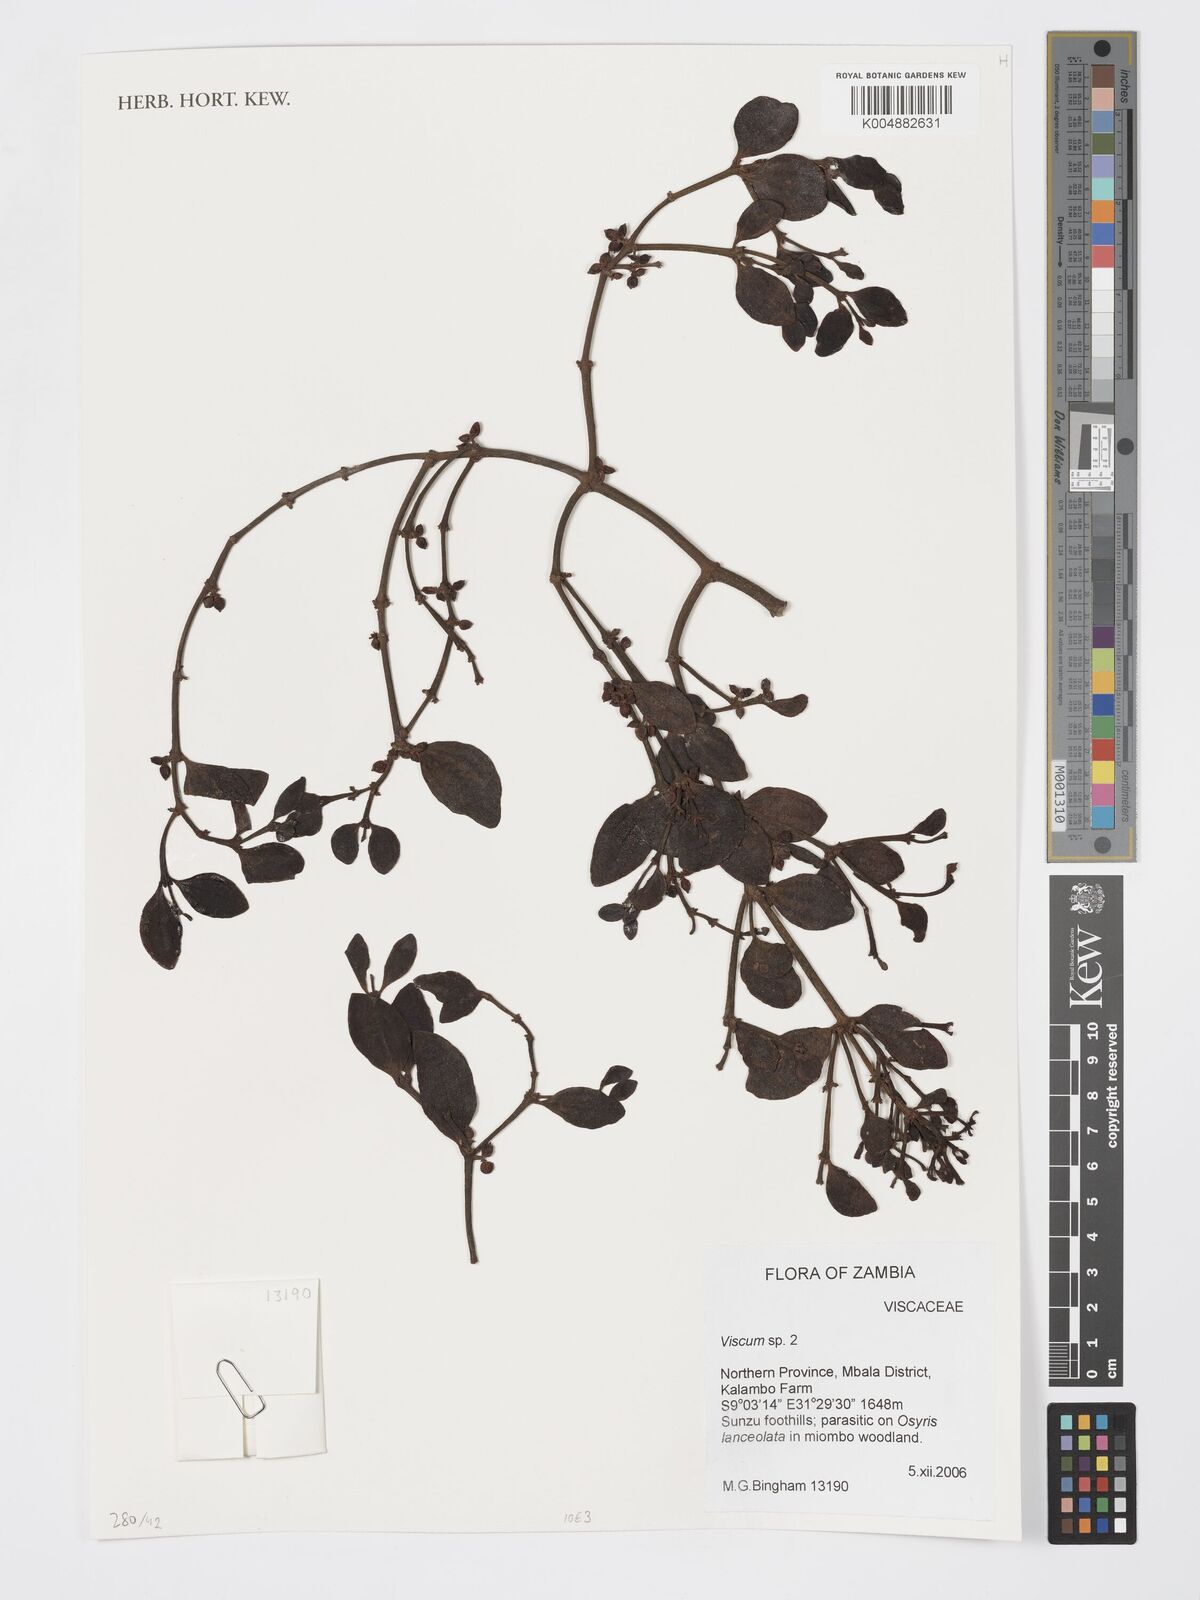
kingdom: Plantae
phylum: Tracheophyta
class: Magnoliopsida
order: Santalales
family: Viscaceae
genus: Viscum
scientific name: Viscum
